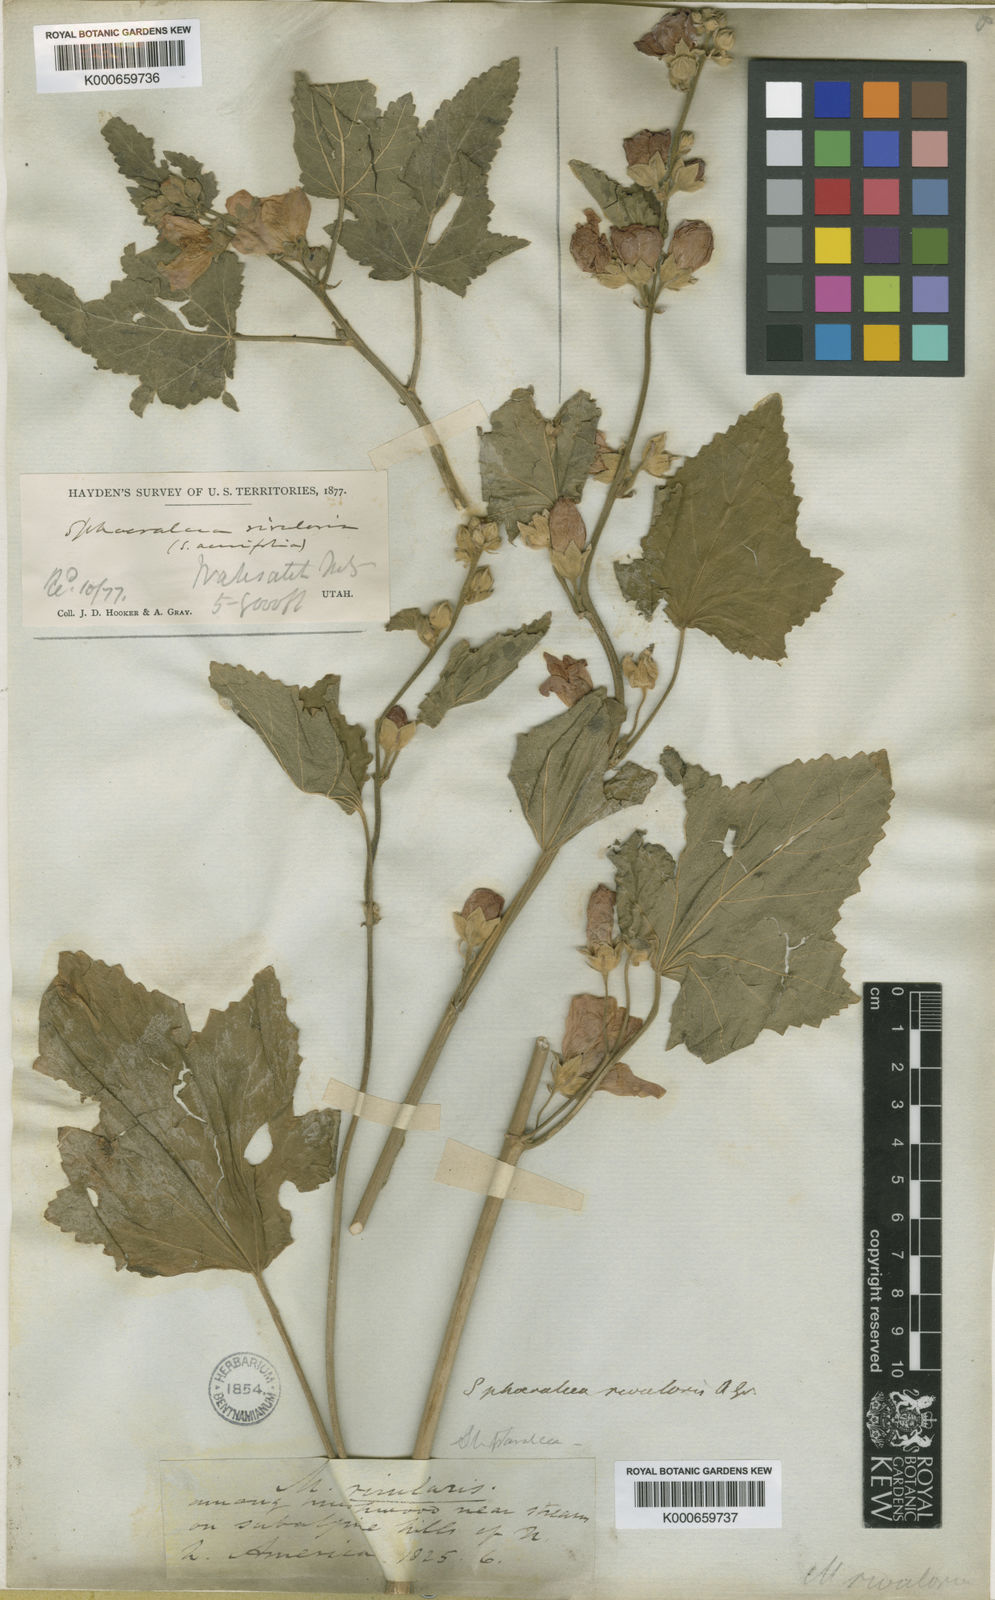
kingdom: Plantae
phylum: Tracheophyta
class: Magnoliopsida
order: Malvales
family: Malvaceae
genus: Sphaeralcea
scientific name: Sphaeralcea
